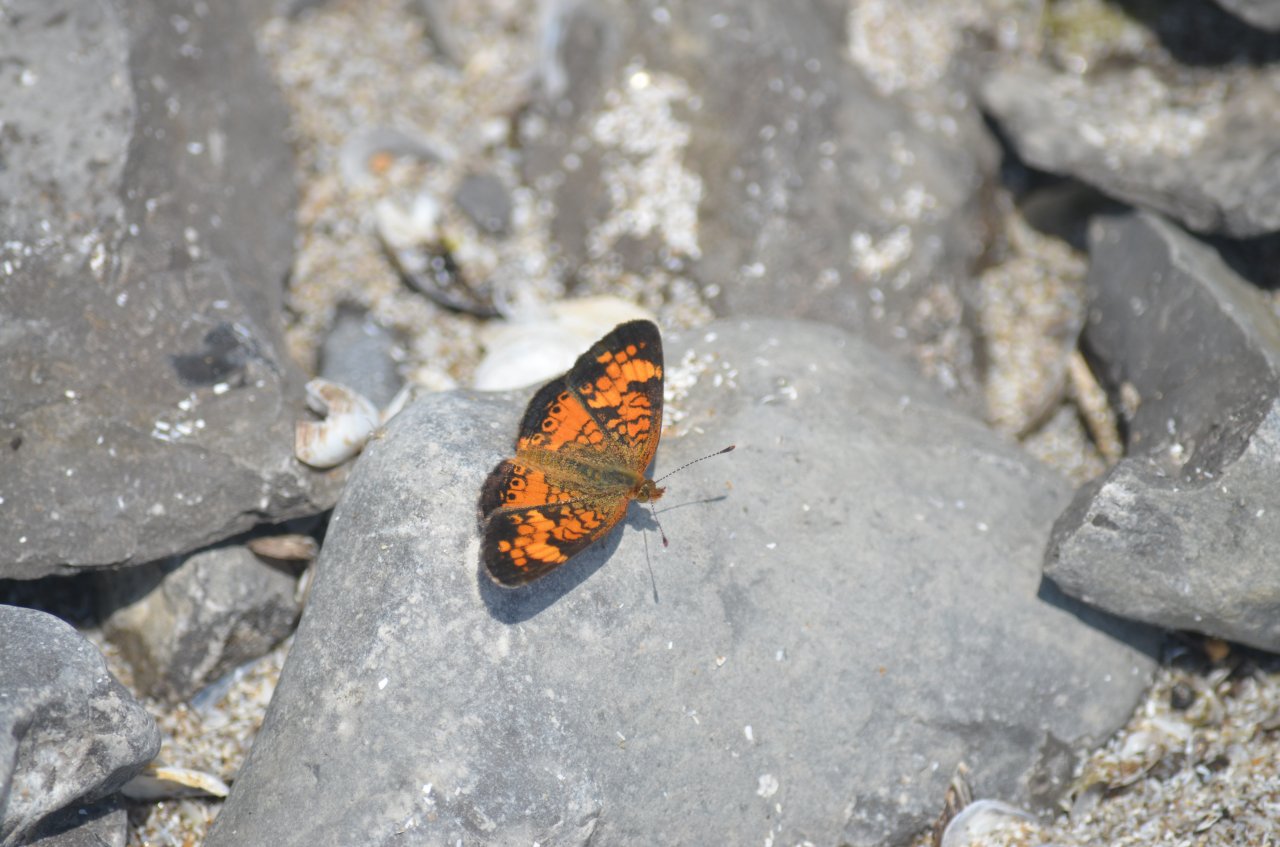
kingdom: Animalia
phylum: Arthropoda
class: Insecta
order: Lepidoptera
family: Nymphalidae
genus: Phyciodes
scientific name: Phyciodes tharos
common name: Northern Crescent
